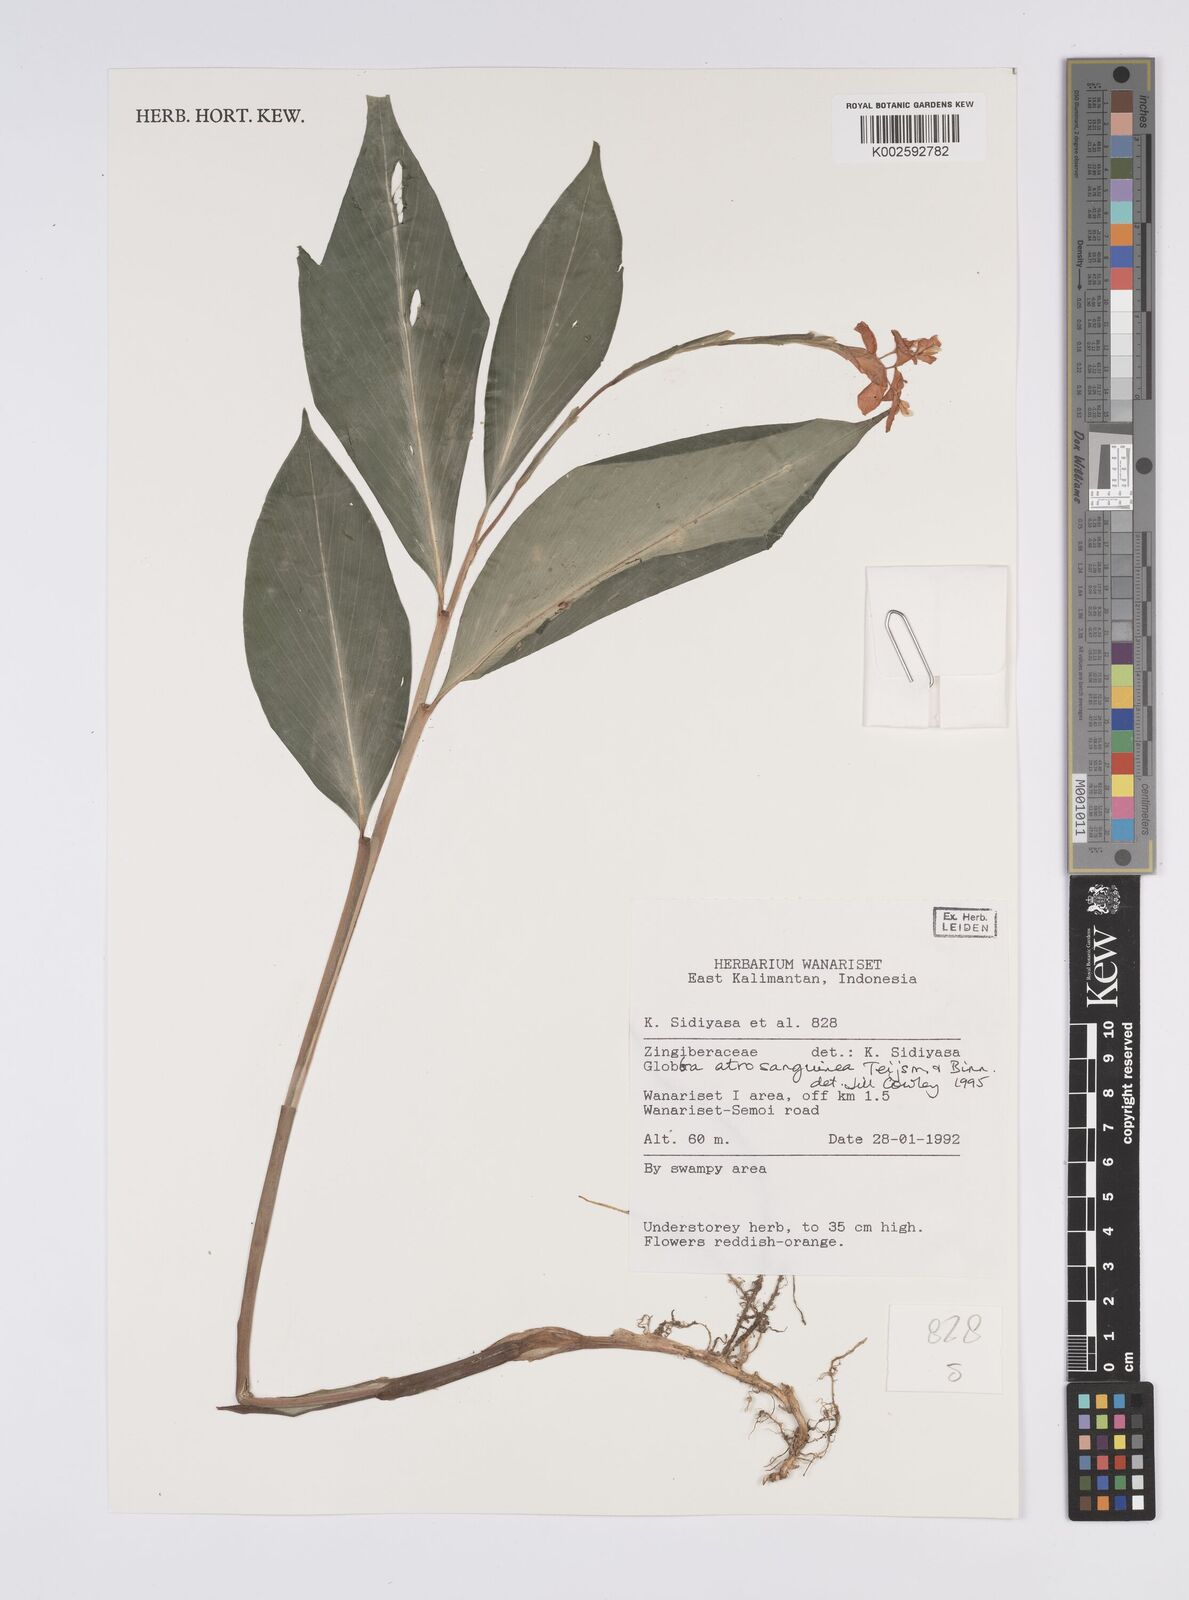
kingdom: Plantae
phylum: Tracheophyta
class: Liliopsida
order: Zingiberales
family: Zingiberaceae
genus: Globba
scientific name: Globba atrosanguinea
